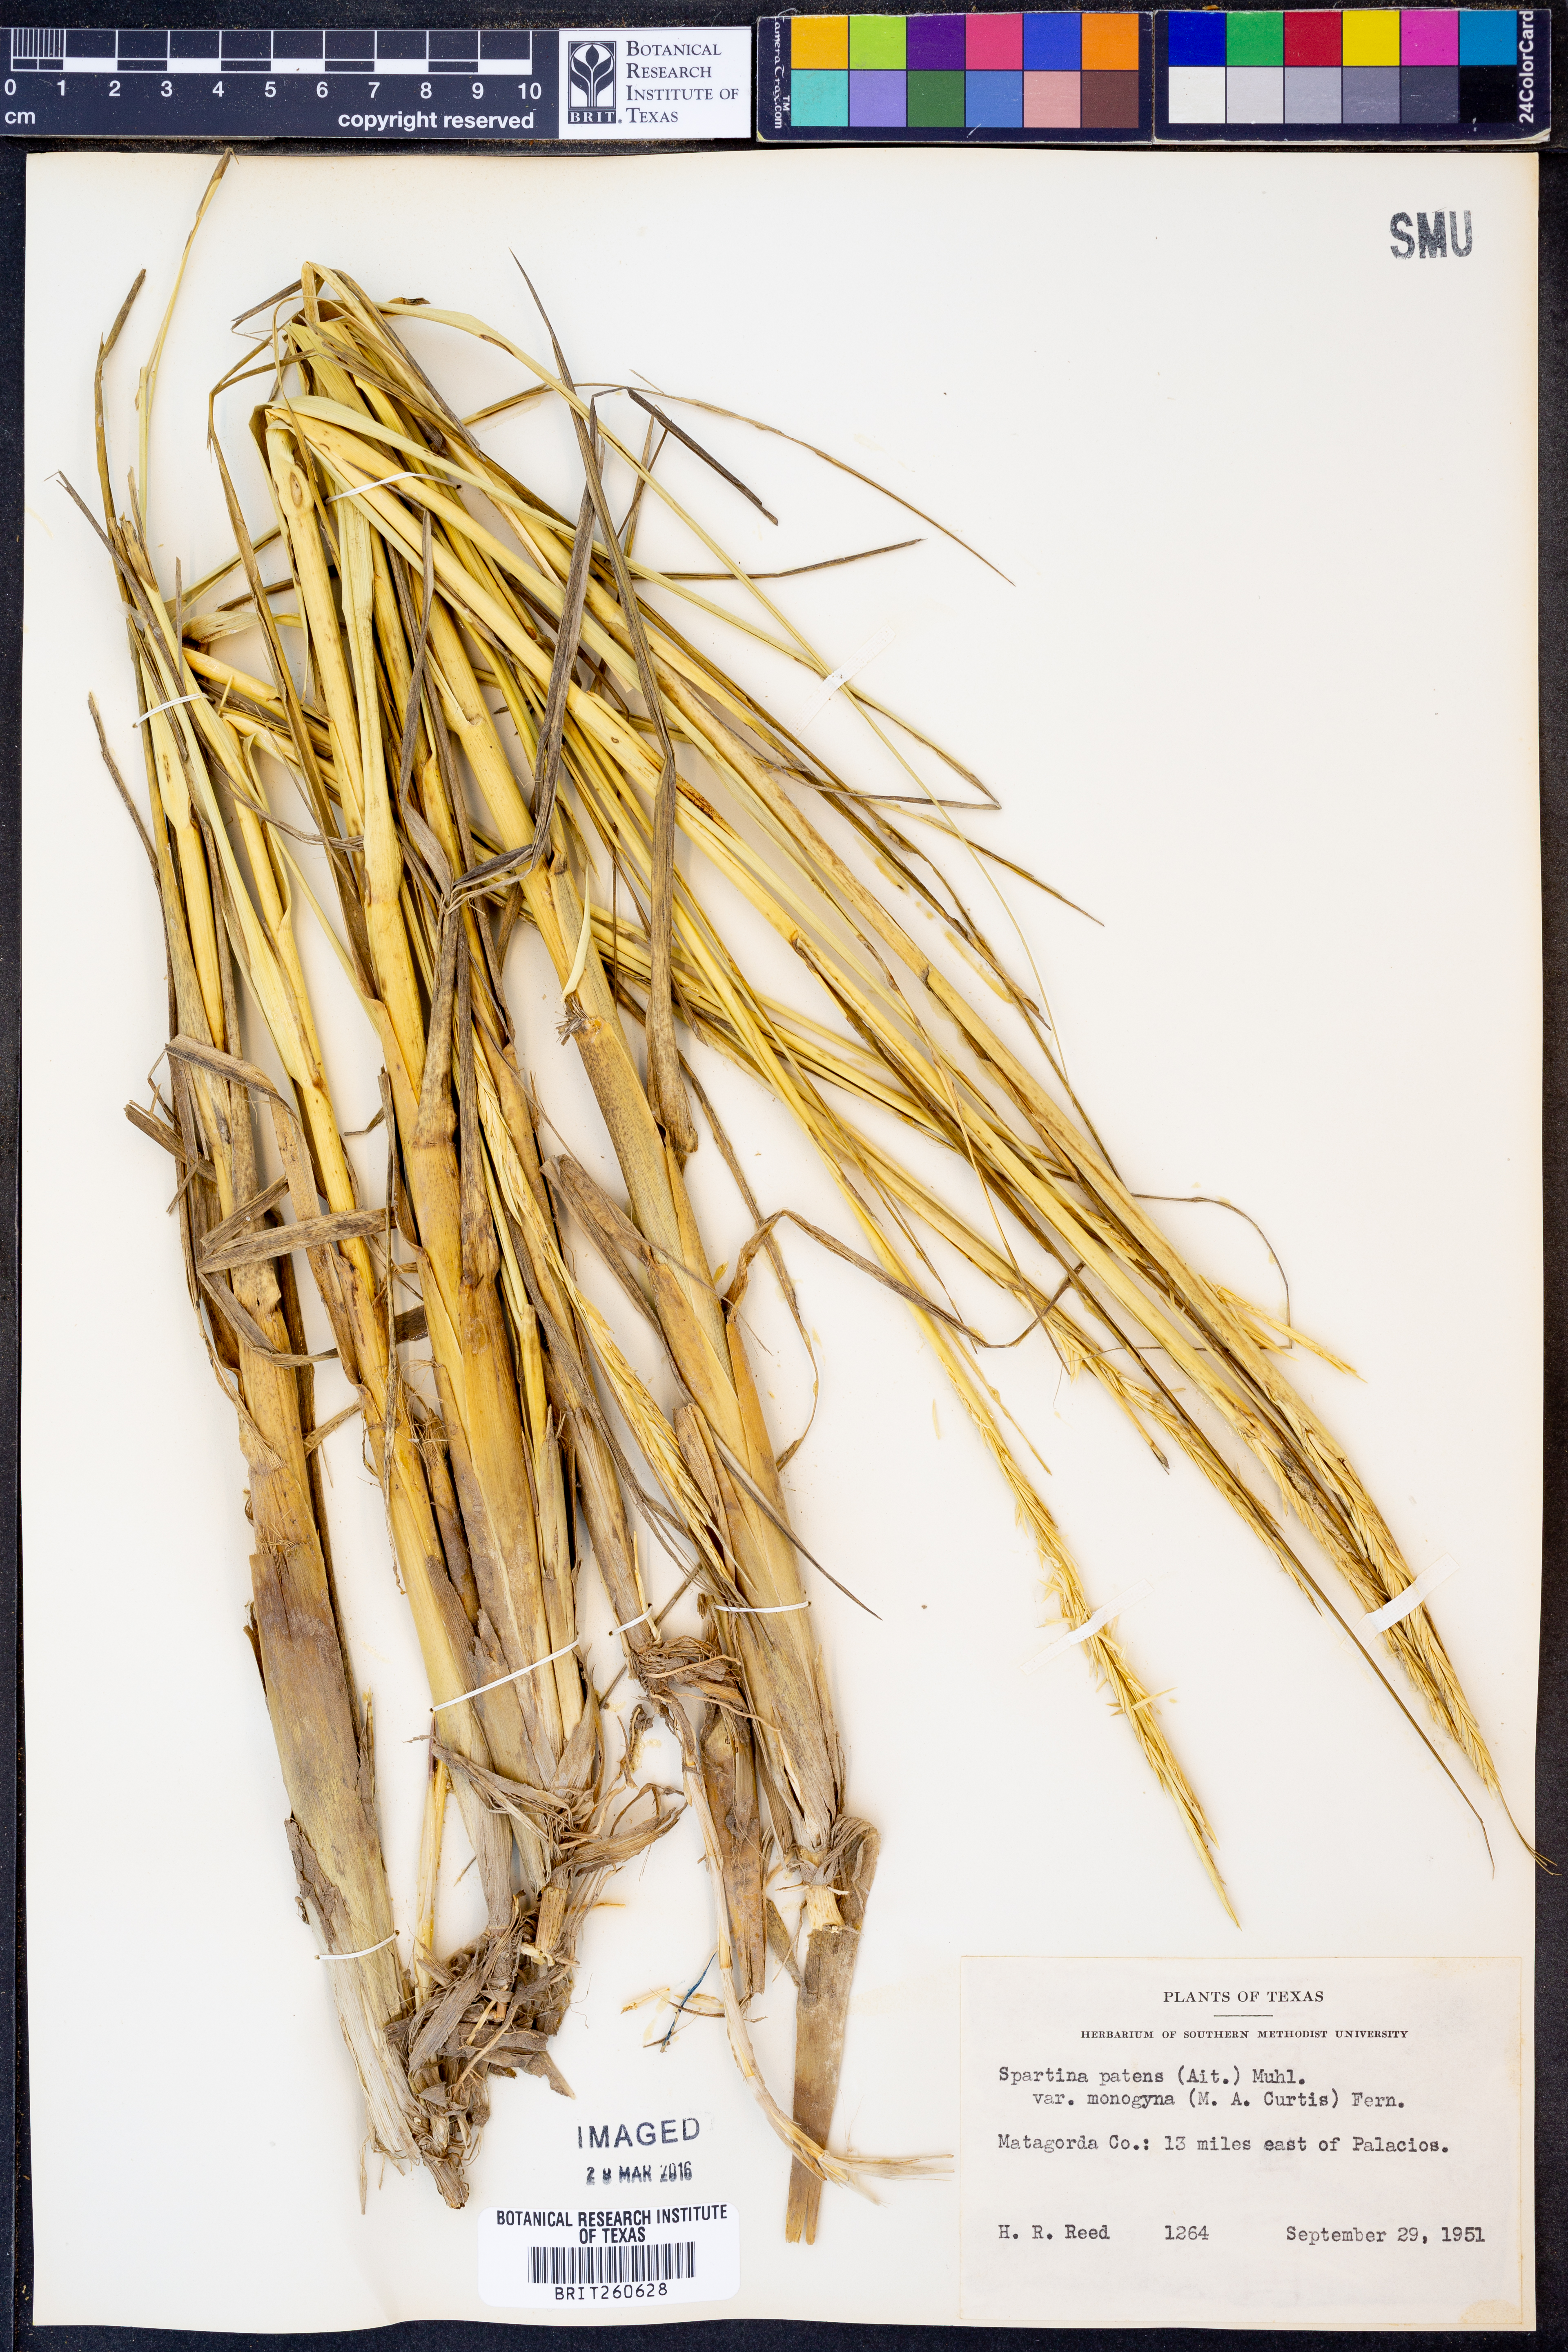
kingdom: Plantae
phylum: Tracheophyta
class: Liliopsida
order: Poales
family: Poaceae
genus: Sporobolus
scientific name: Sporobolus pumilus
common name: Highwater grass
